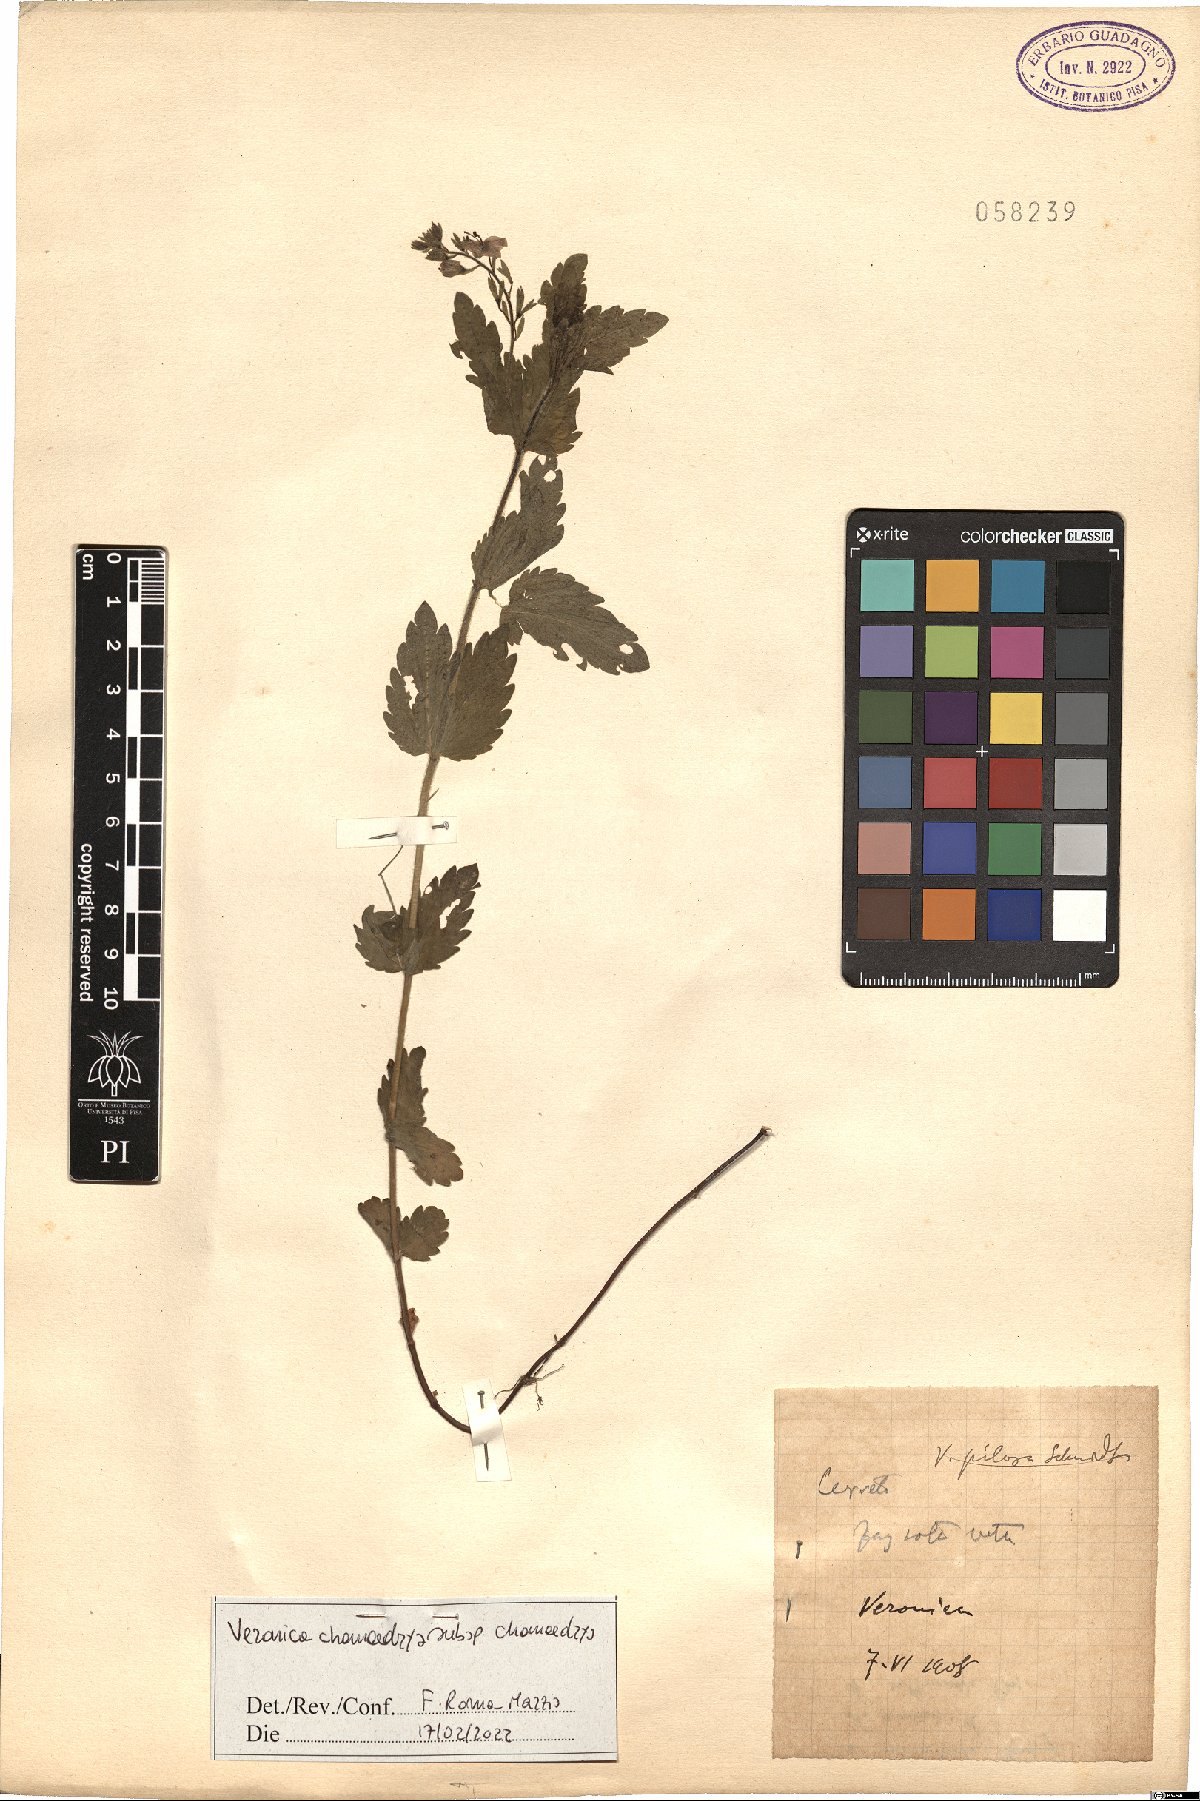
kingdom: Plantae
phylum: Tracheophyta
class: Magnoliopsida
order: Lamiales
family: Plantaginaceae
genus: Veronica
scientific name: Veronica chamaedrys
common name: Germander speedwell
